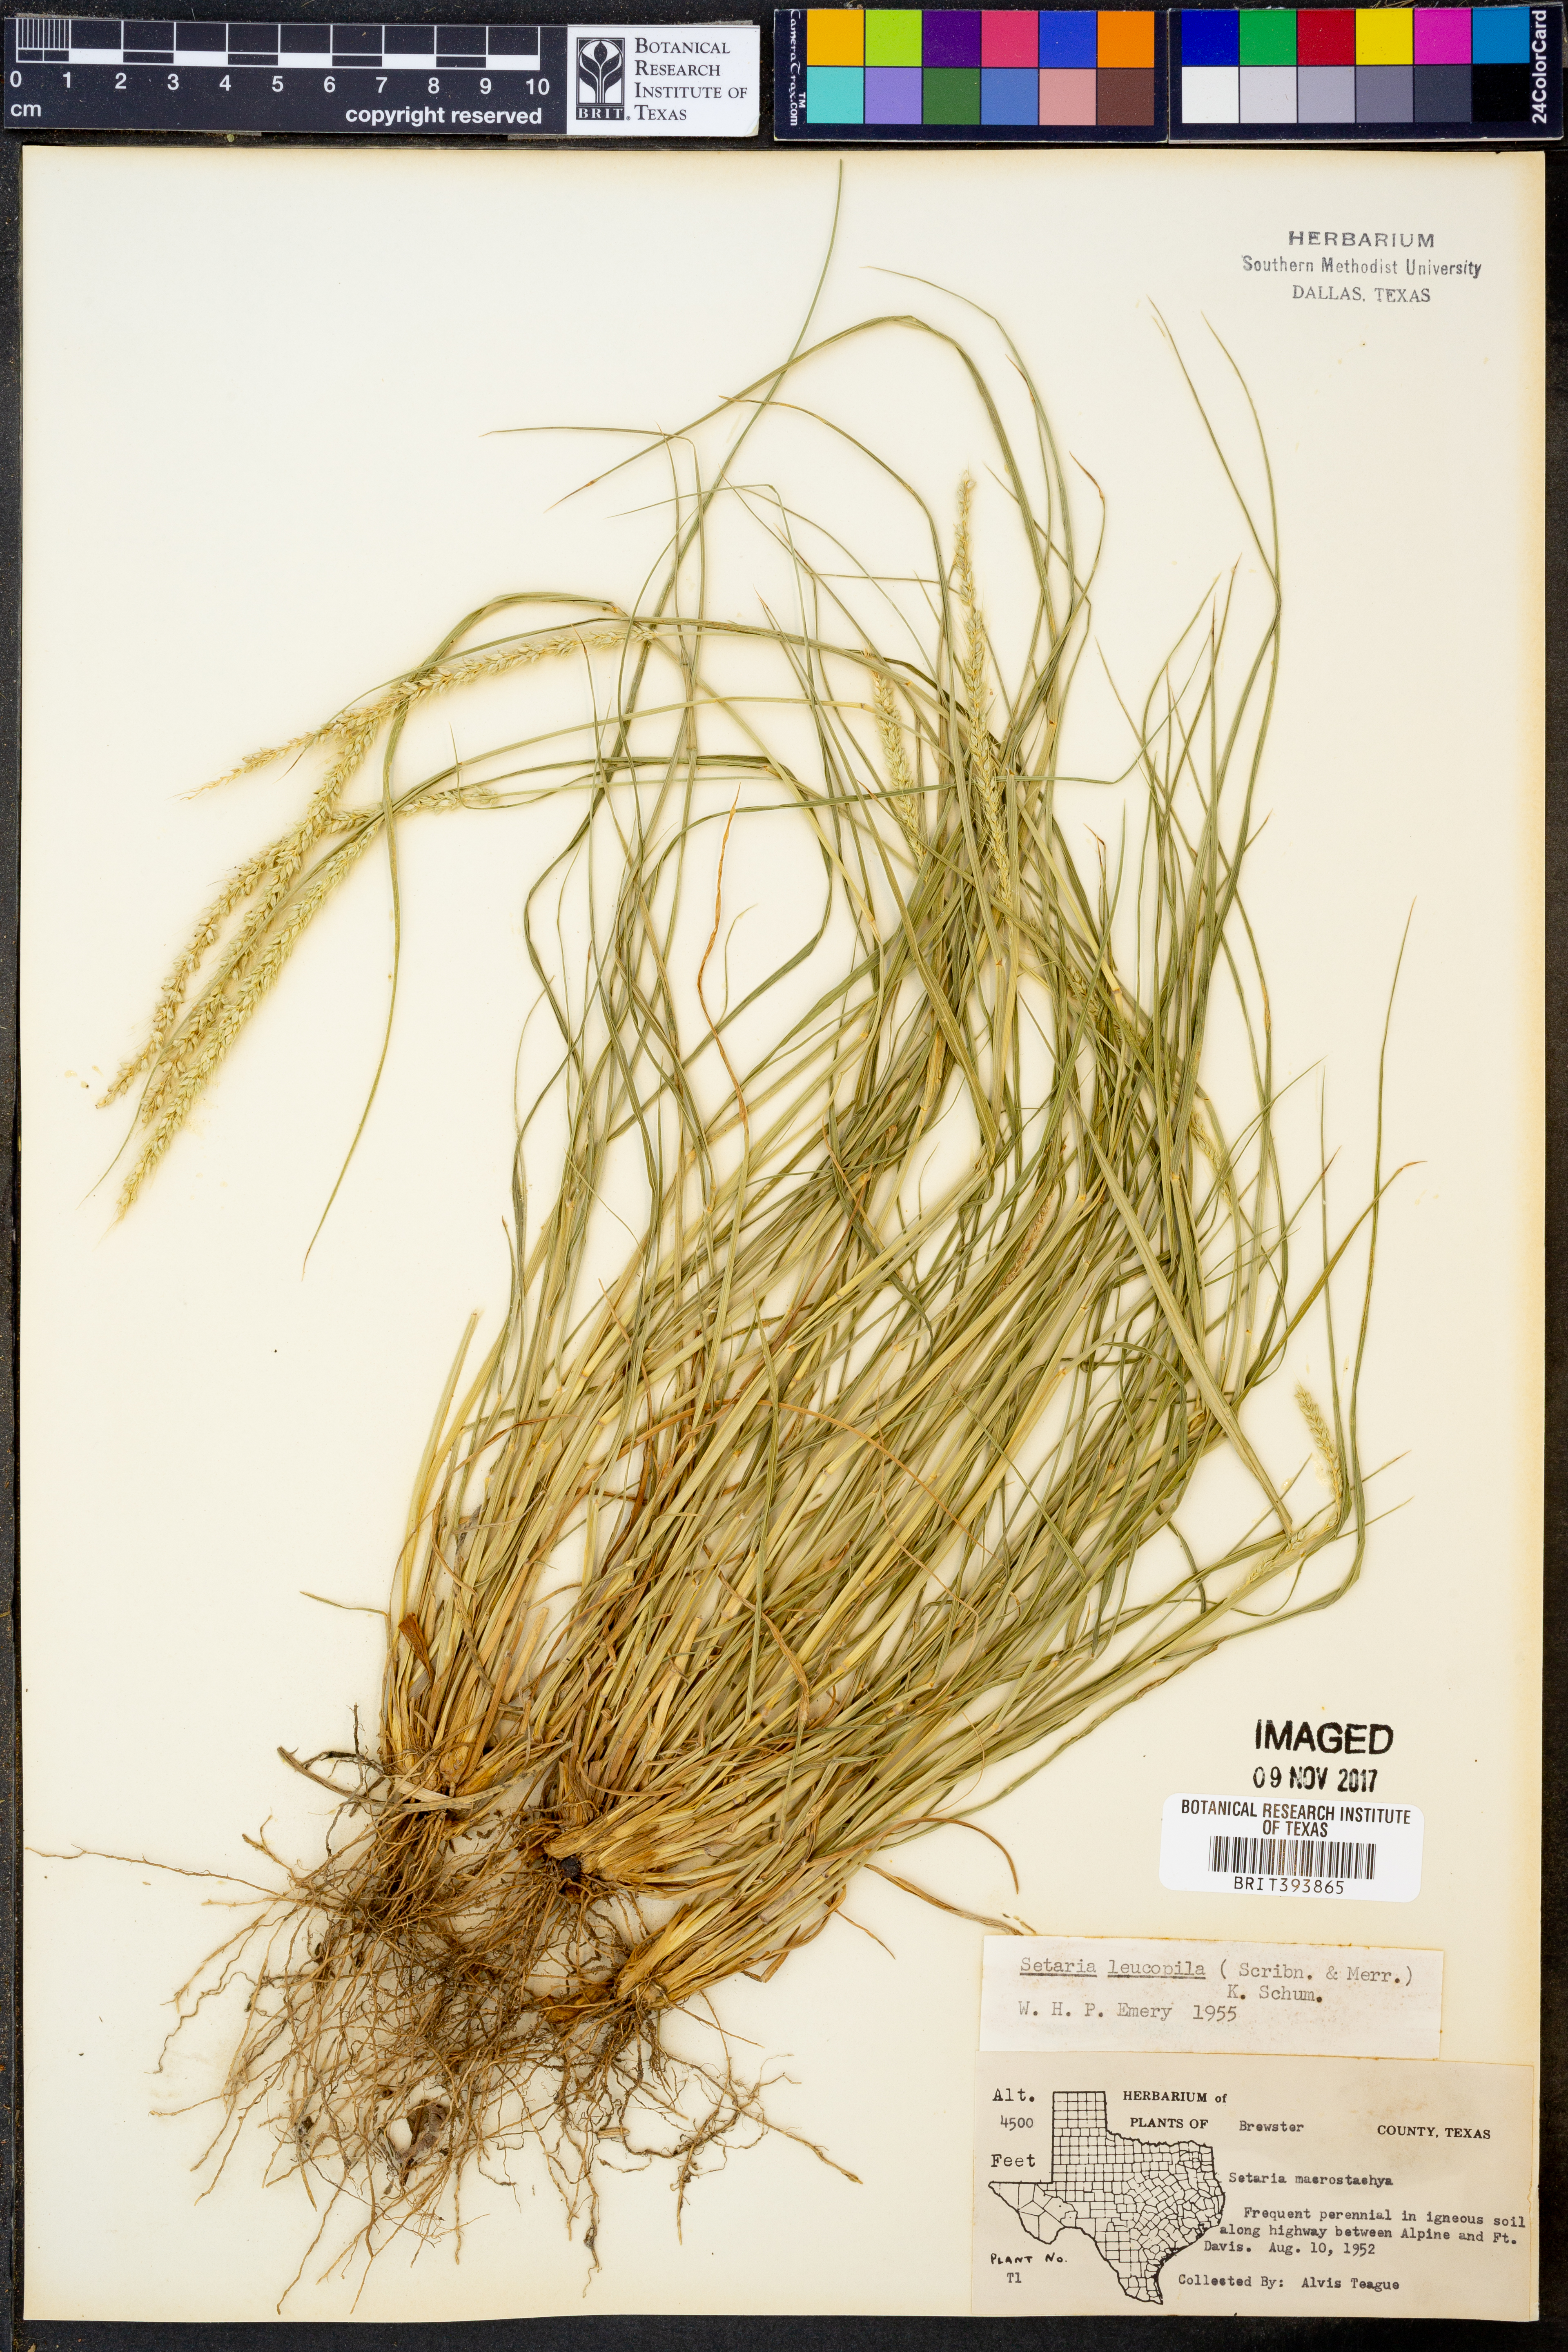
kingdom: Plantae
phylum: Tracheophyta
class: Liliopsida
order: Poales
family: Poaceae
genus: Setaria
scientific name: Setaria leucopila
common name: Plains bristle grass
